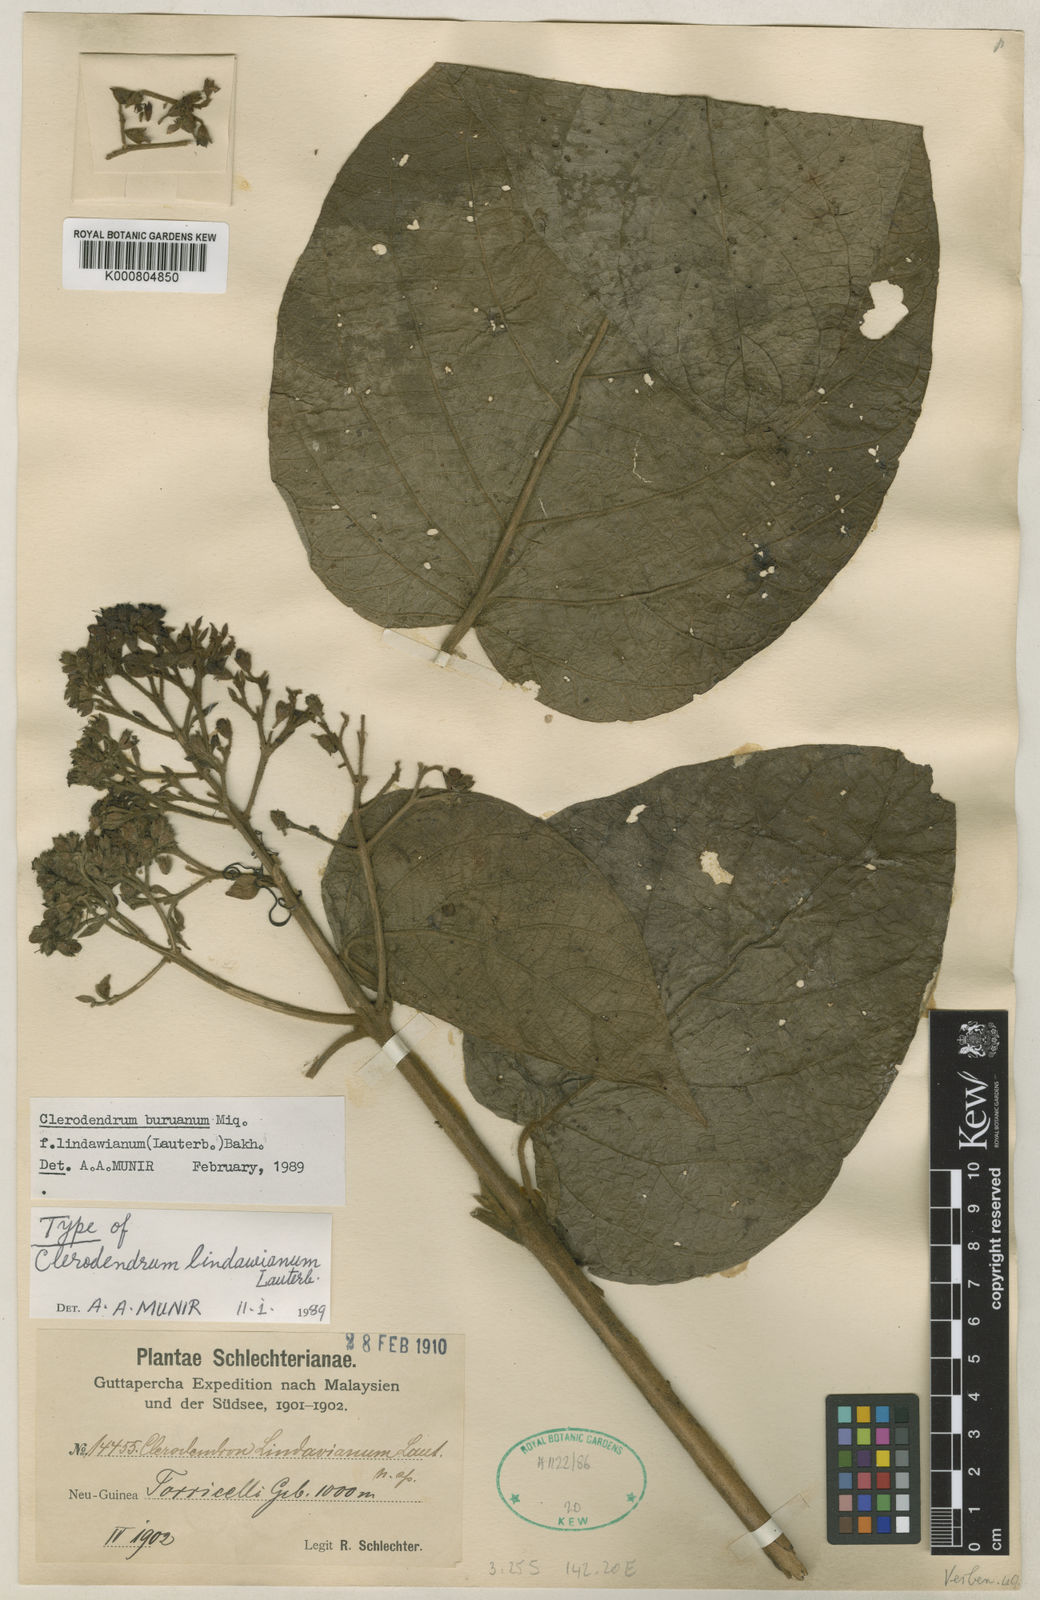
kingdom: Plantae
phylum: Tracheophyta
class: Magnoliopsida
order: Lamiales
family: Lamiaceae
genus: Clerodendrum
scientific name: Clerodendrum tracyanum
